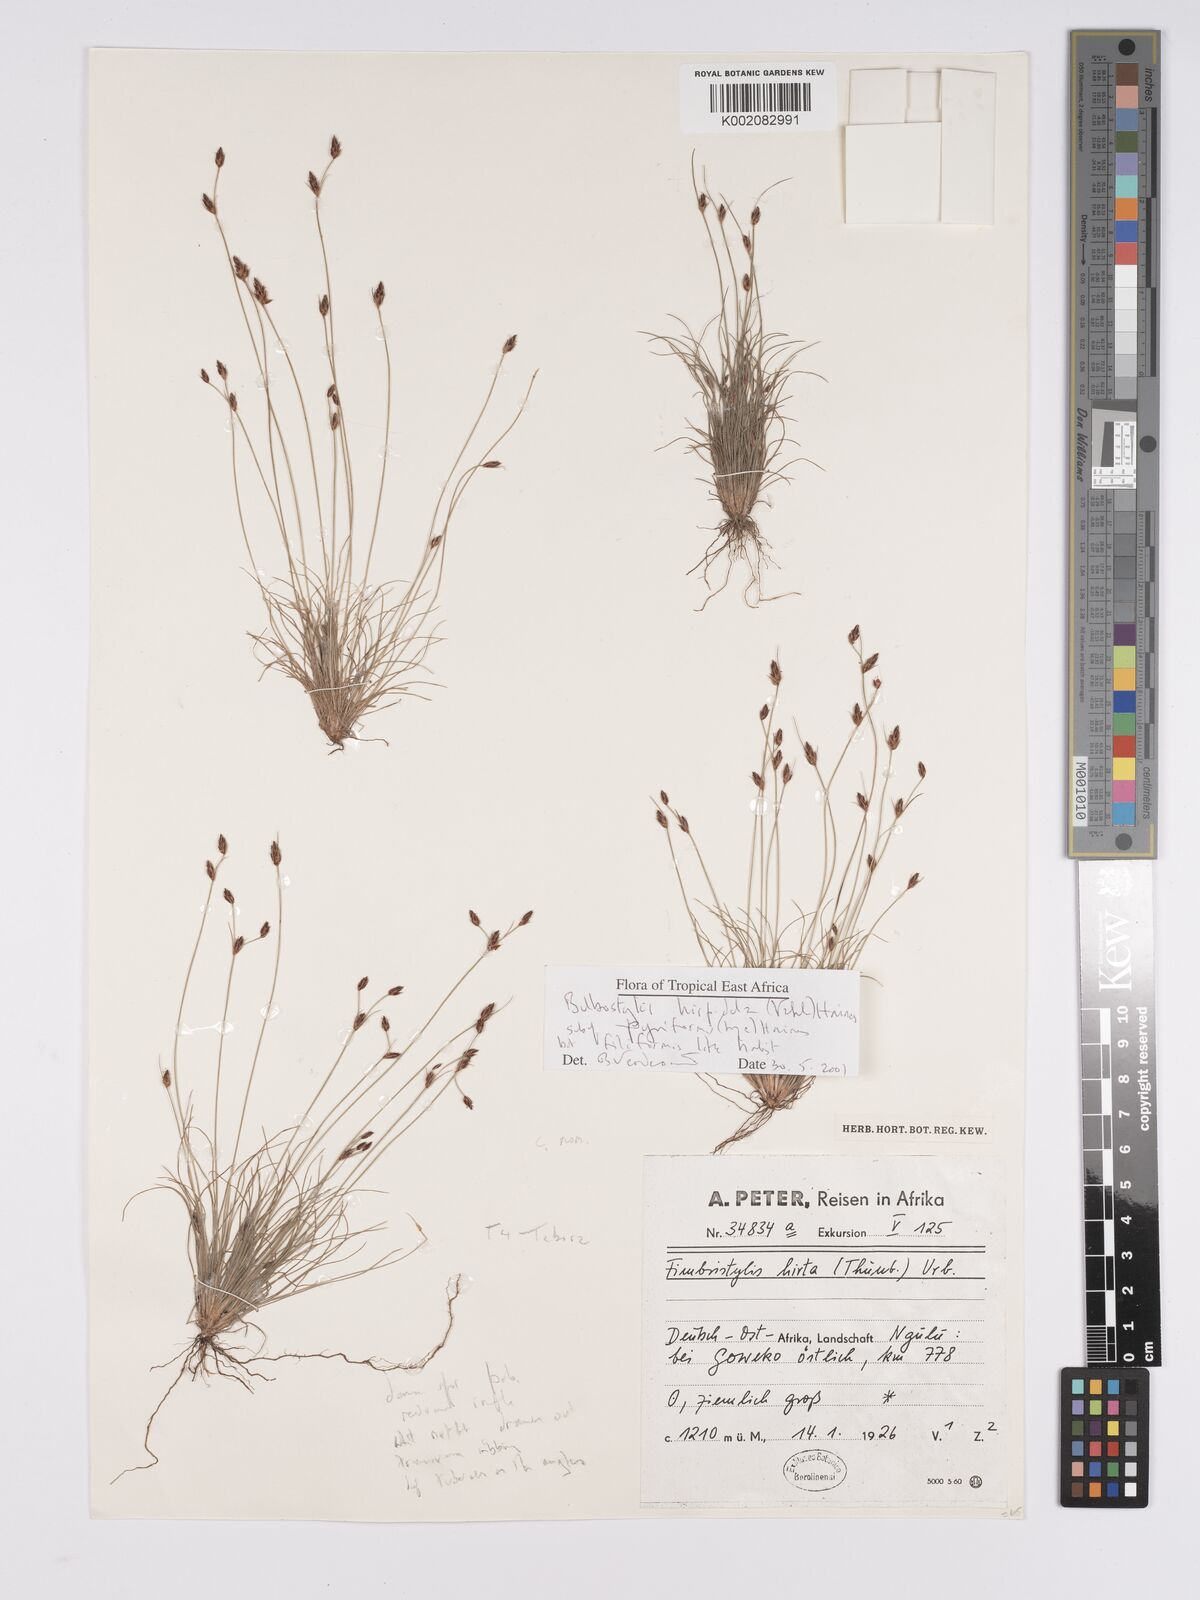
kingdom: Plantae
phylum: Tracheophyta
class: Liliopsida
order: Poales
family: Cyperaceae
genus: Bulbostylis
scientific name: Bulbostylis hispidula
